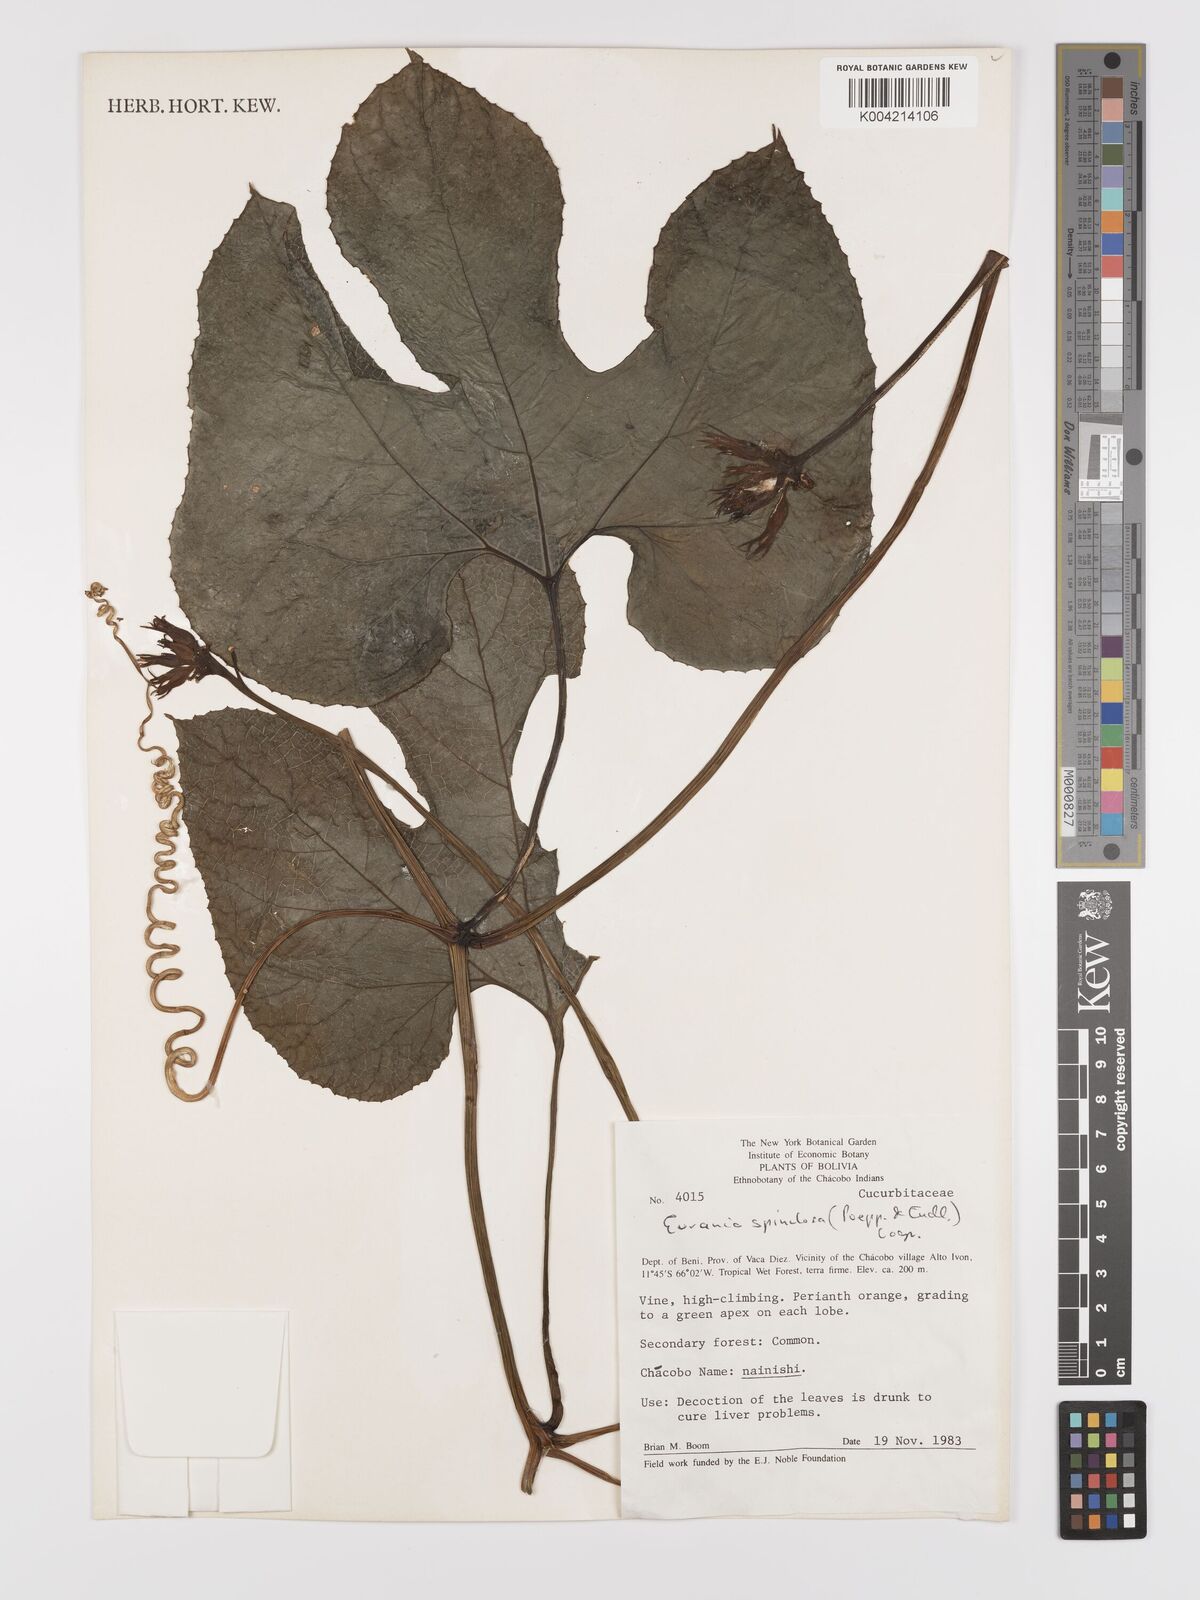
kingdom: Plantae
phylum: Tracheophyta
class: Magnoliopsida
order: Cucurbitales
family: Cucurbitaceae
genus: Gurania
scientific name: Gurania lobata
